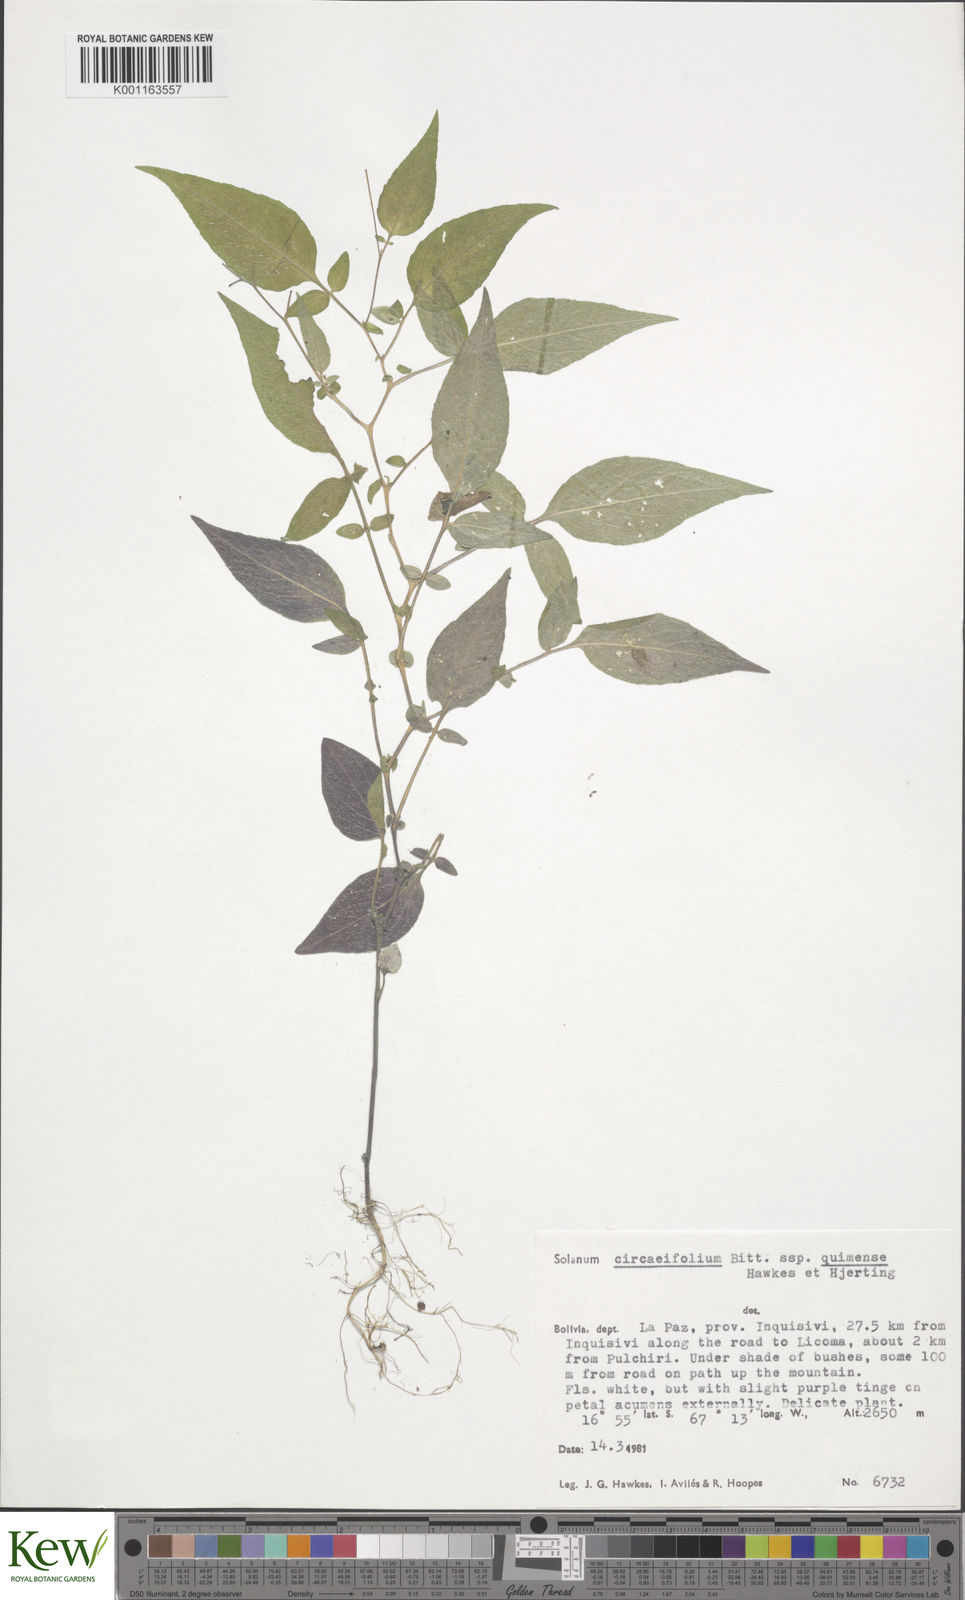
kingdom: Plantae
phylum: Tracheophyta
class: Magnoliopsida
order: Solanales
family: Solanaceae
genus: Solanum
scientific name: Solanum stipuloideum
